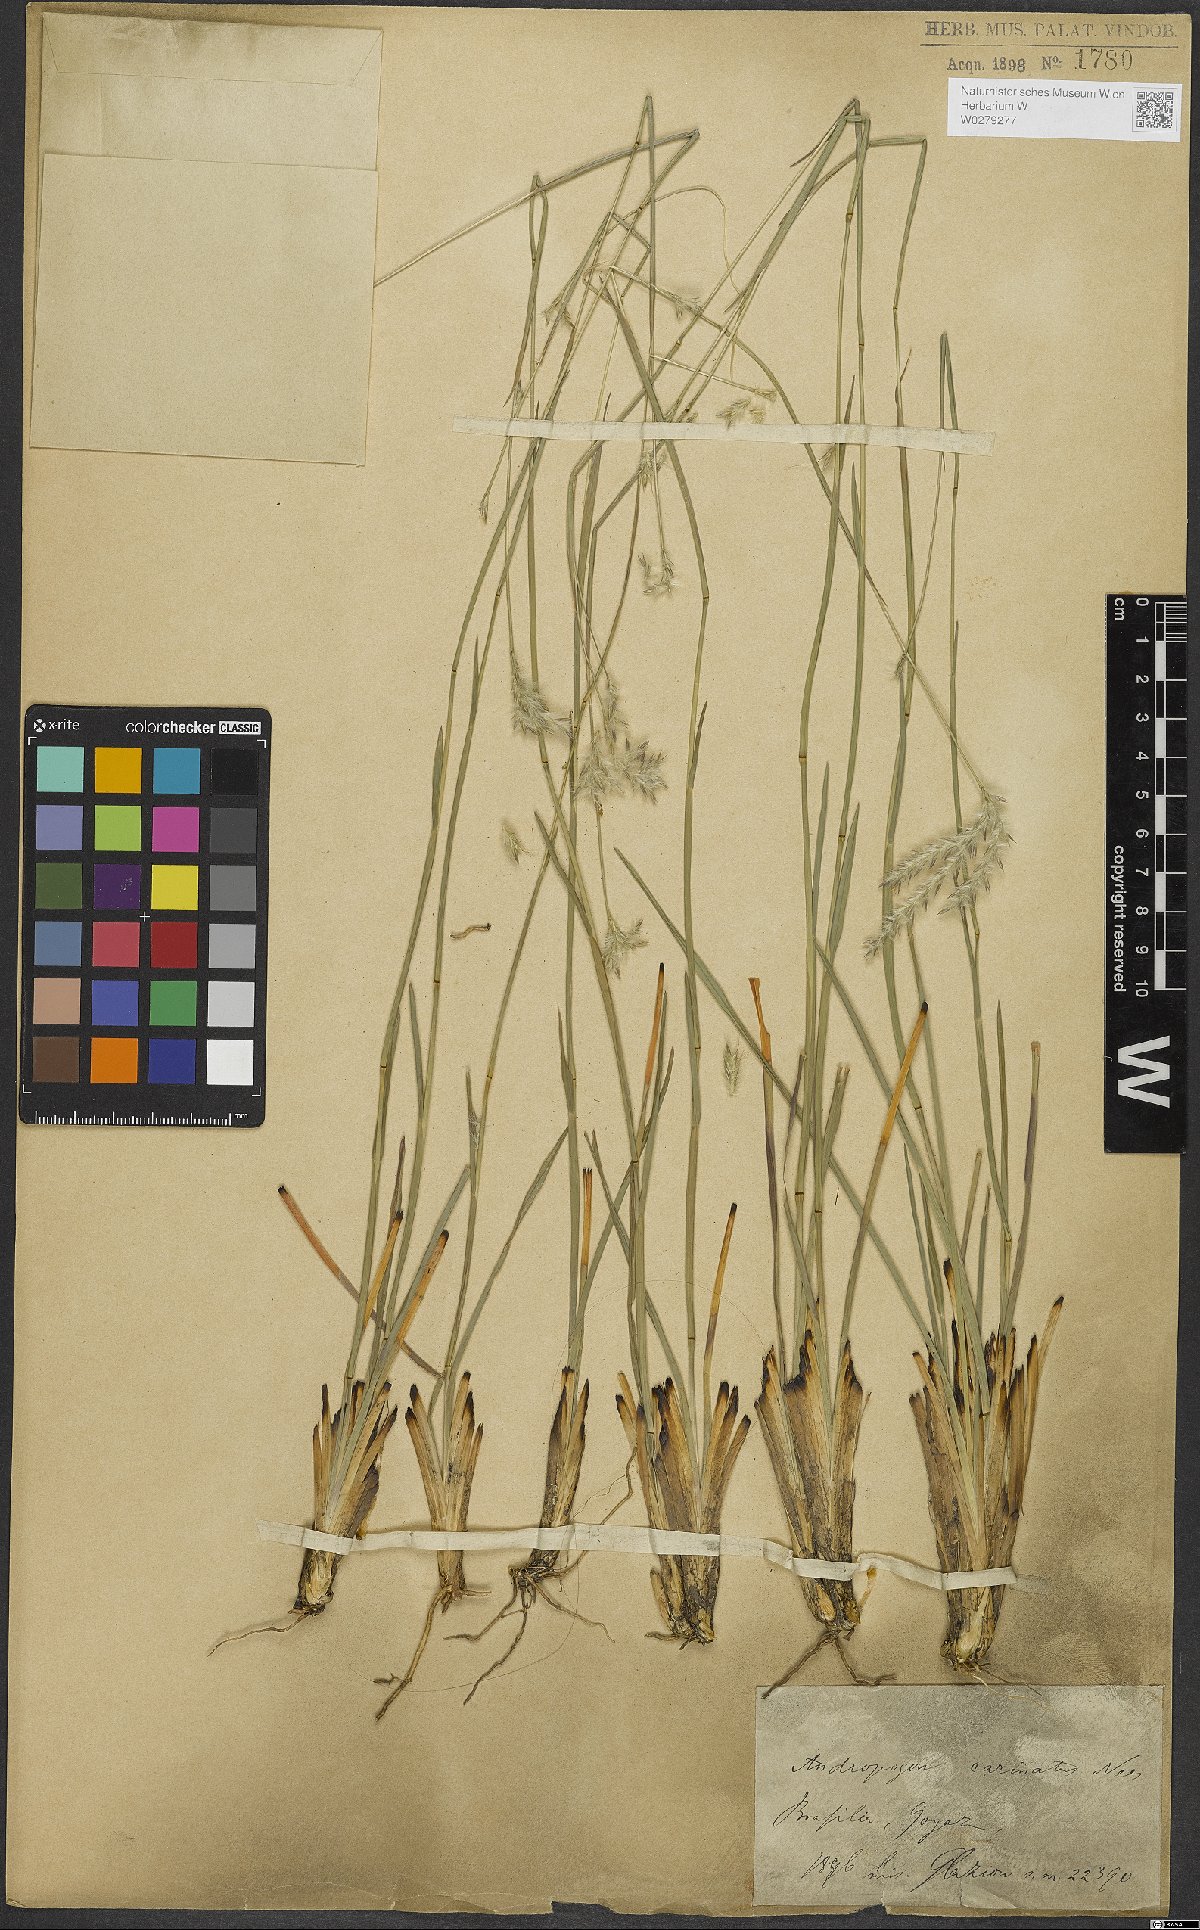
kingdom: Plantae
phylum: Tracheophyta
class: Liliopsida
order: Poales
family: Poaceae
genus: Andropogon
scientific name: Andropogon carinatus
